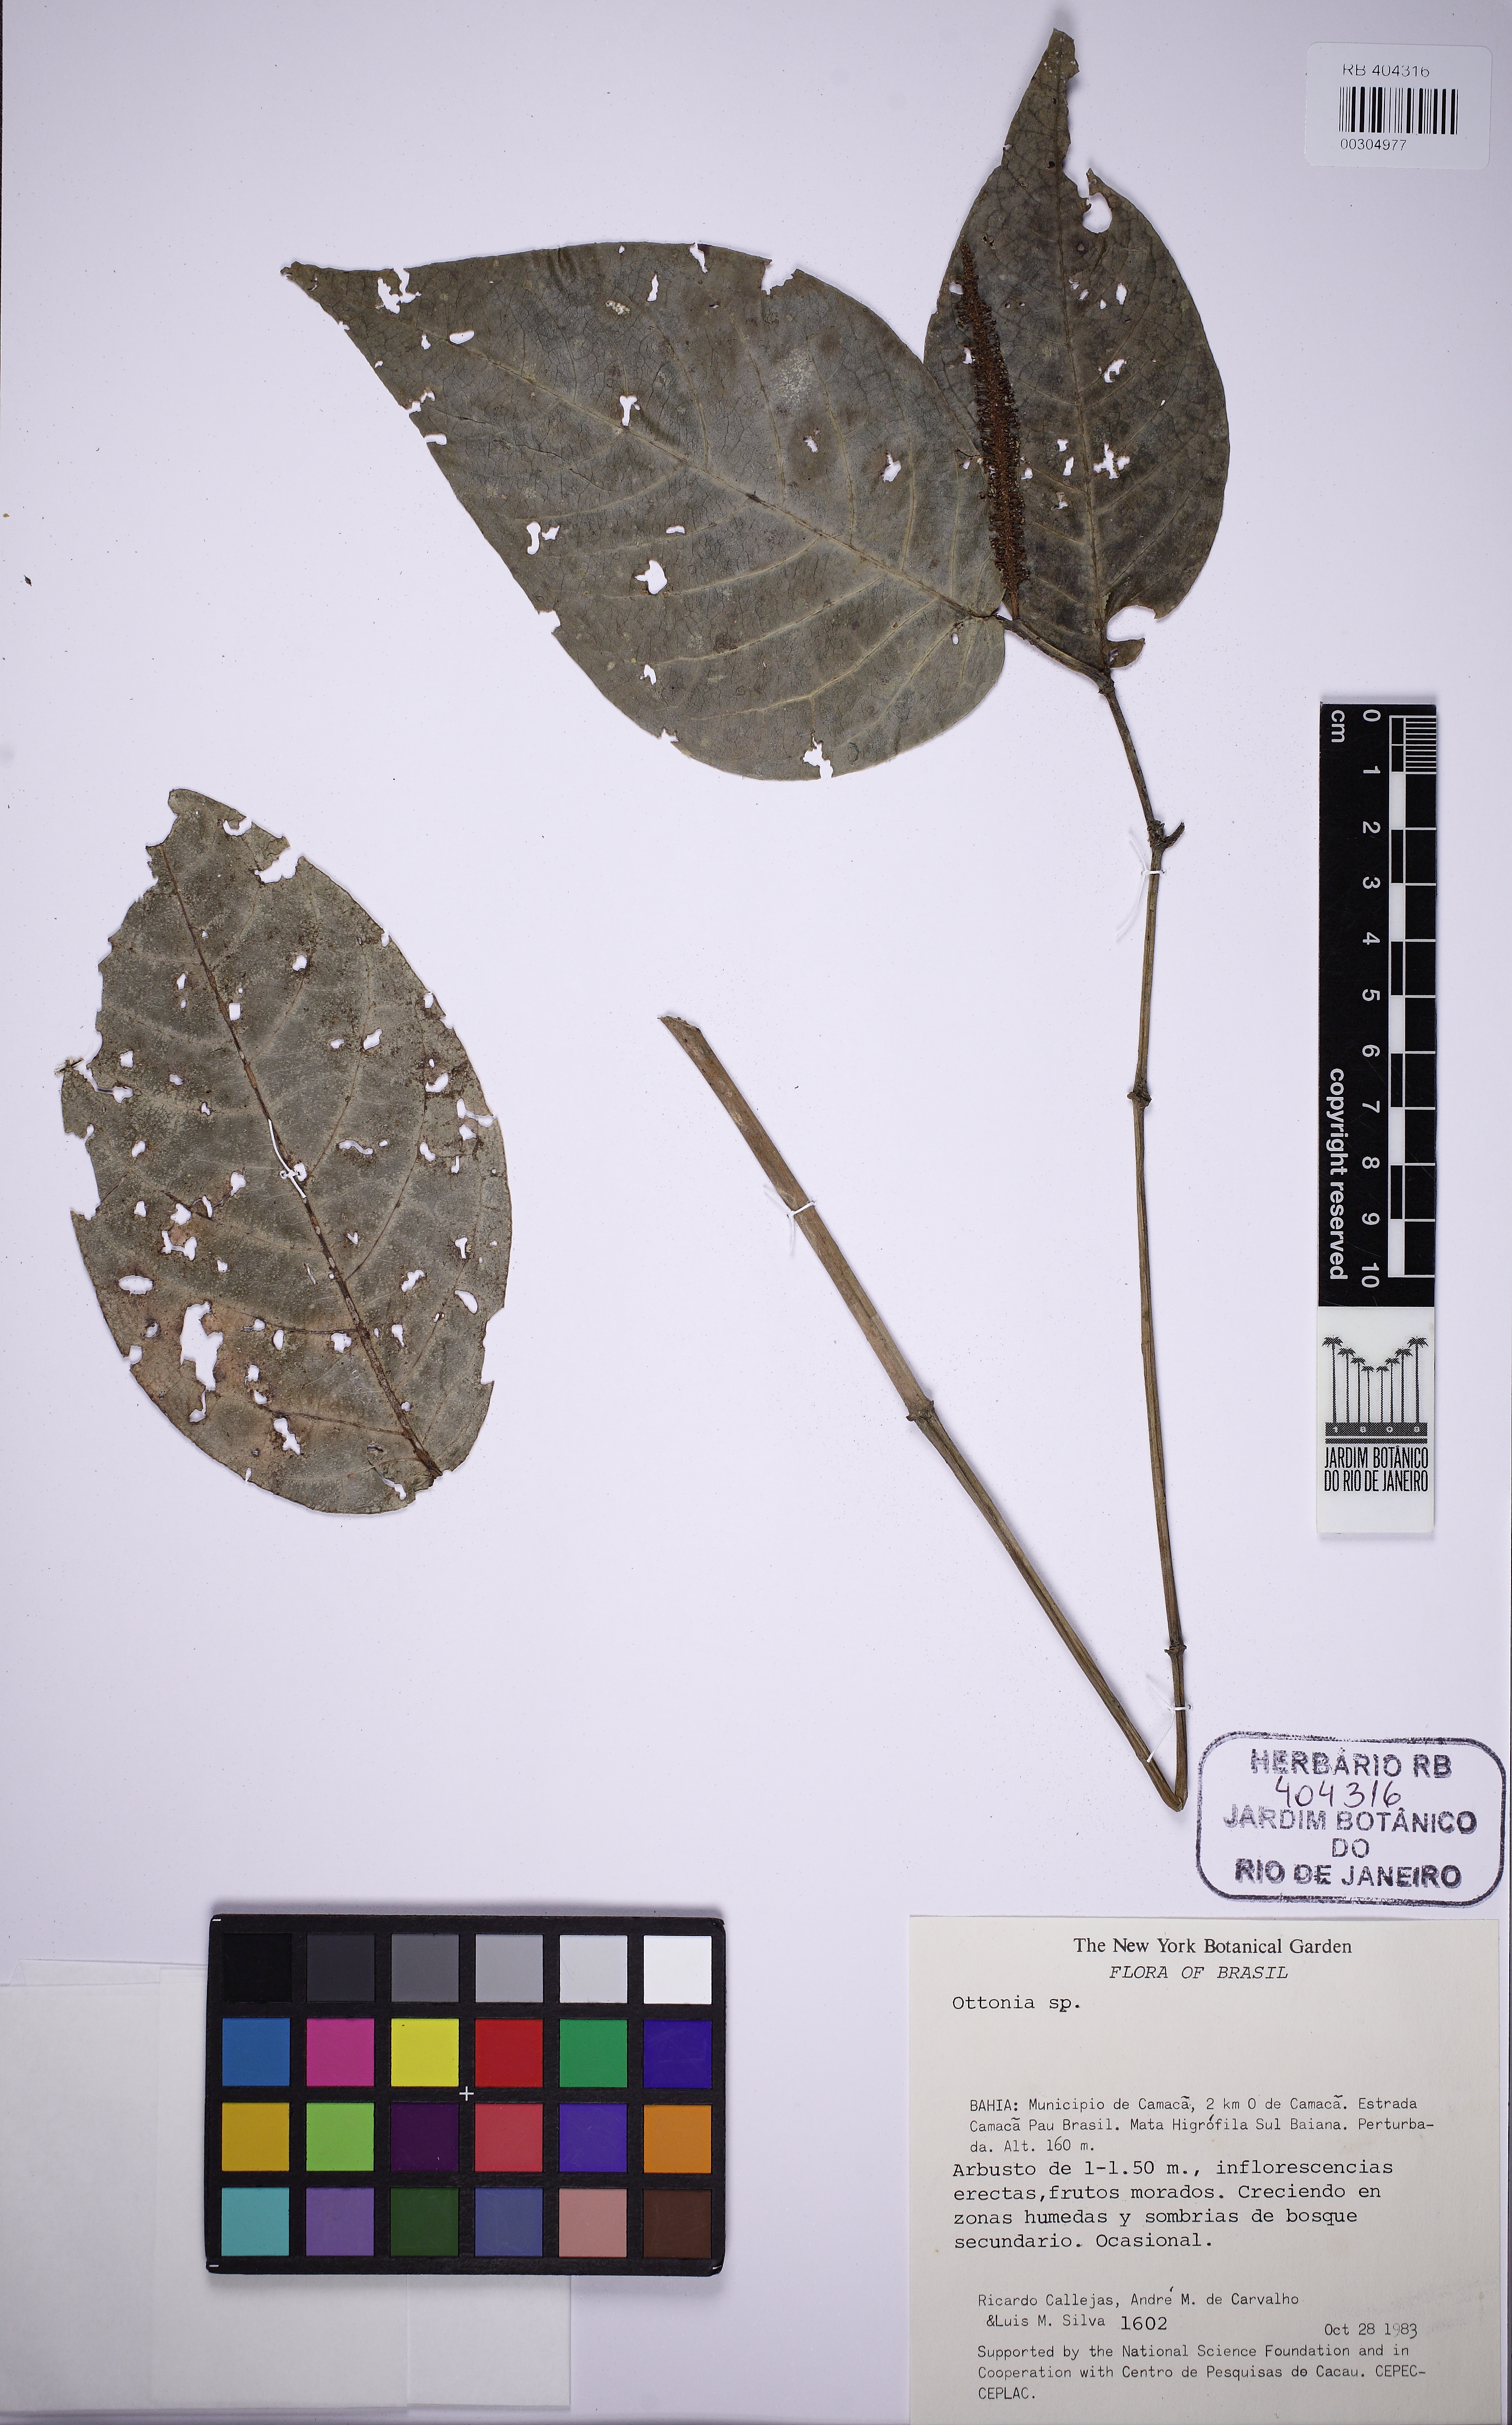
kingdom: Plantae
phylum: Tracheophyta
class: Magnoliopsida
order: Piperales
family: Piperaceae
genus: Piper
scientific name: Piper hayneanum
